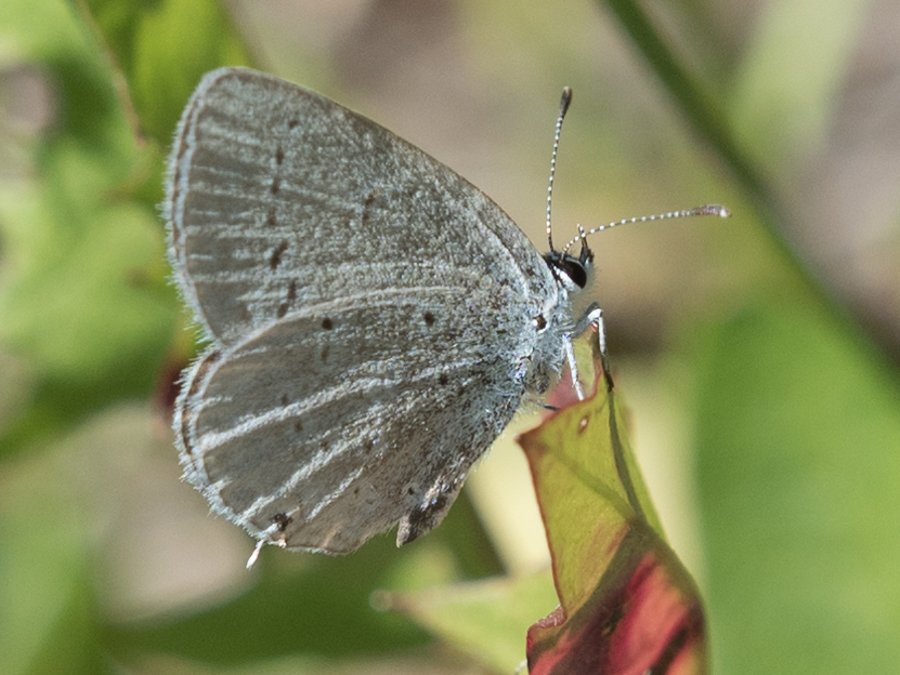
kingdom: Animalia
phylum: Arthropoda
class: Insecta
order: Lepidoptera
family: Lycaenidae
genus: Elkalyce
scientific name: Elkalyce amyntula
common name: Western Tailed-Blue
